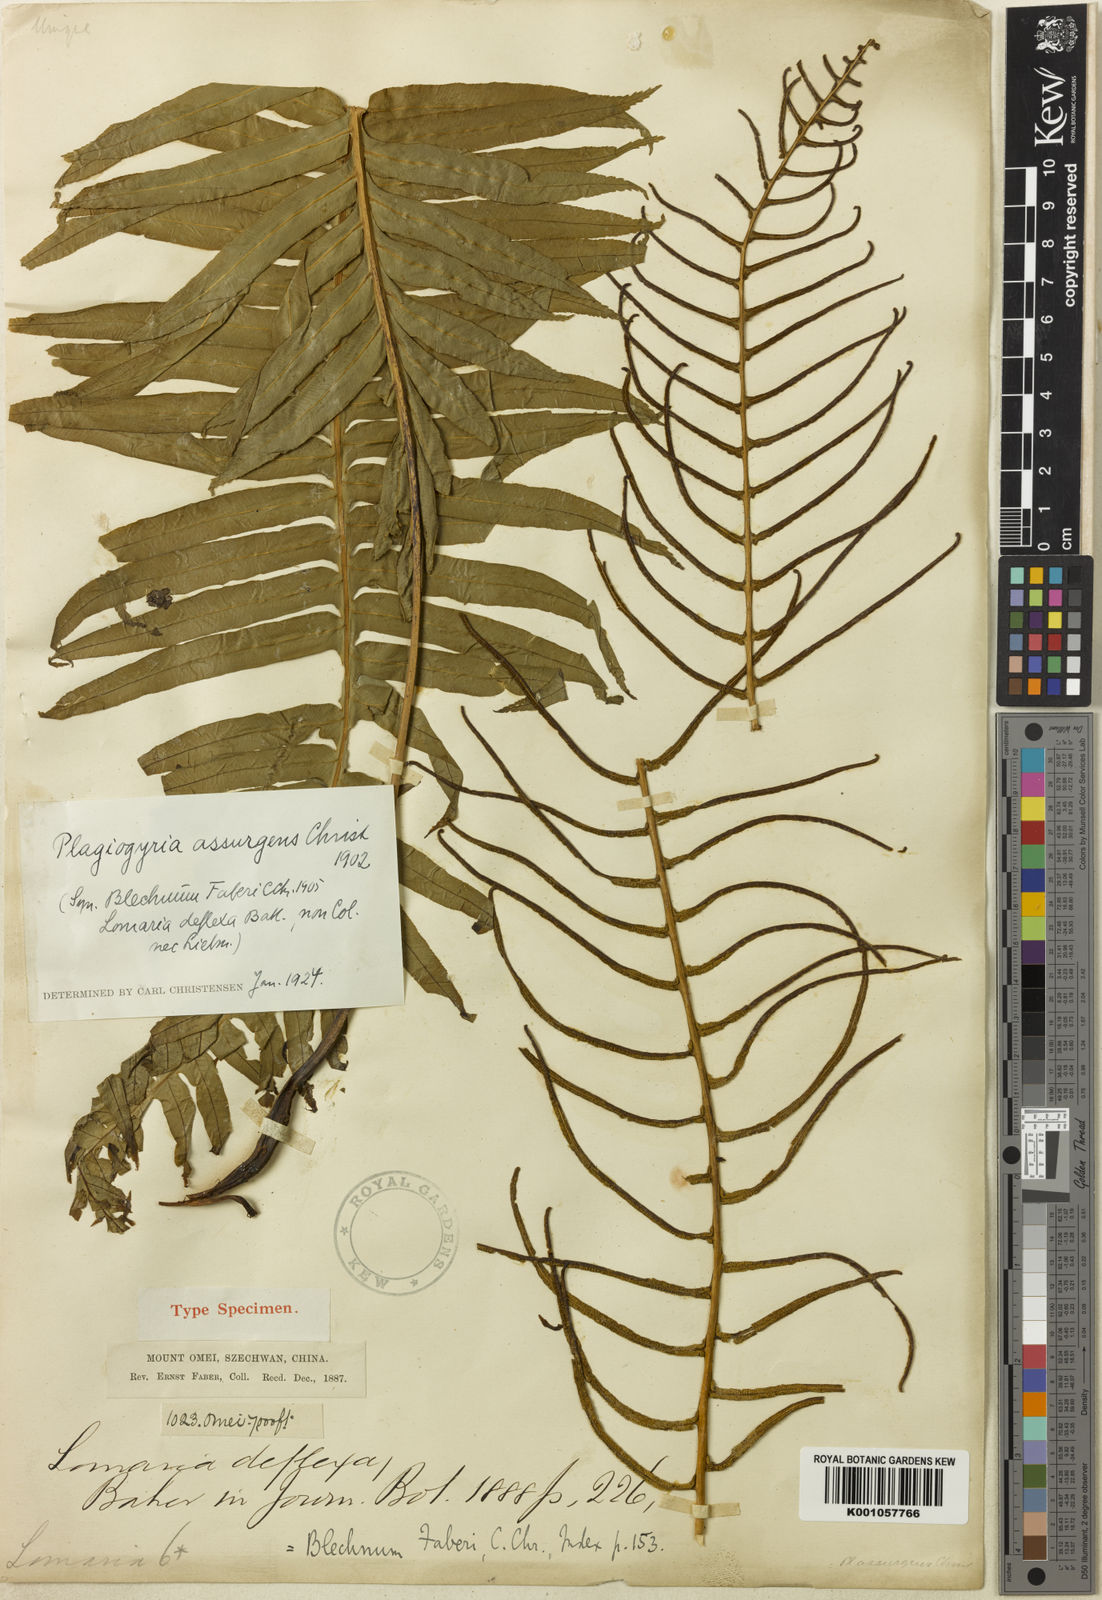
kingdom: Plantae
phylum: Tracheophyta
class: Polypodiopsida
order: Cyatheales
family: Plagiogyriaceae
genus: Plagiogyria
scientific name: Plagiogyria assurgens
